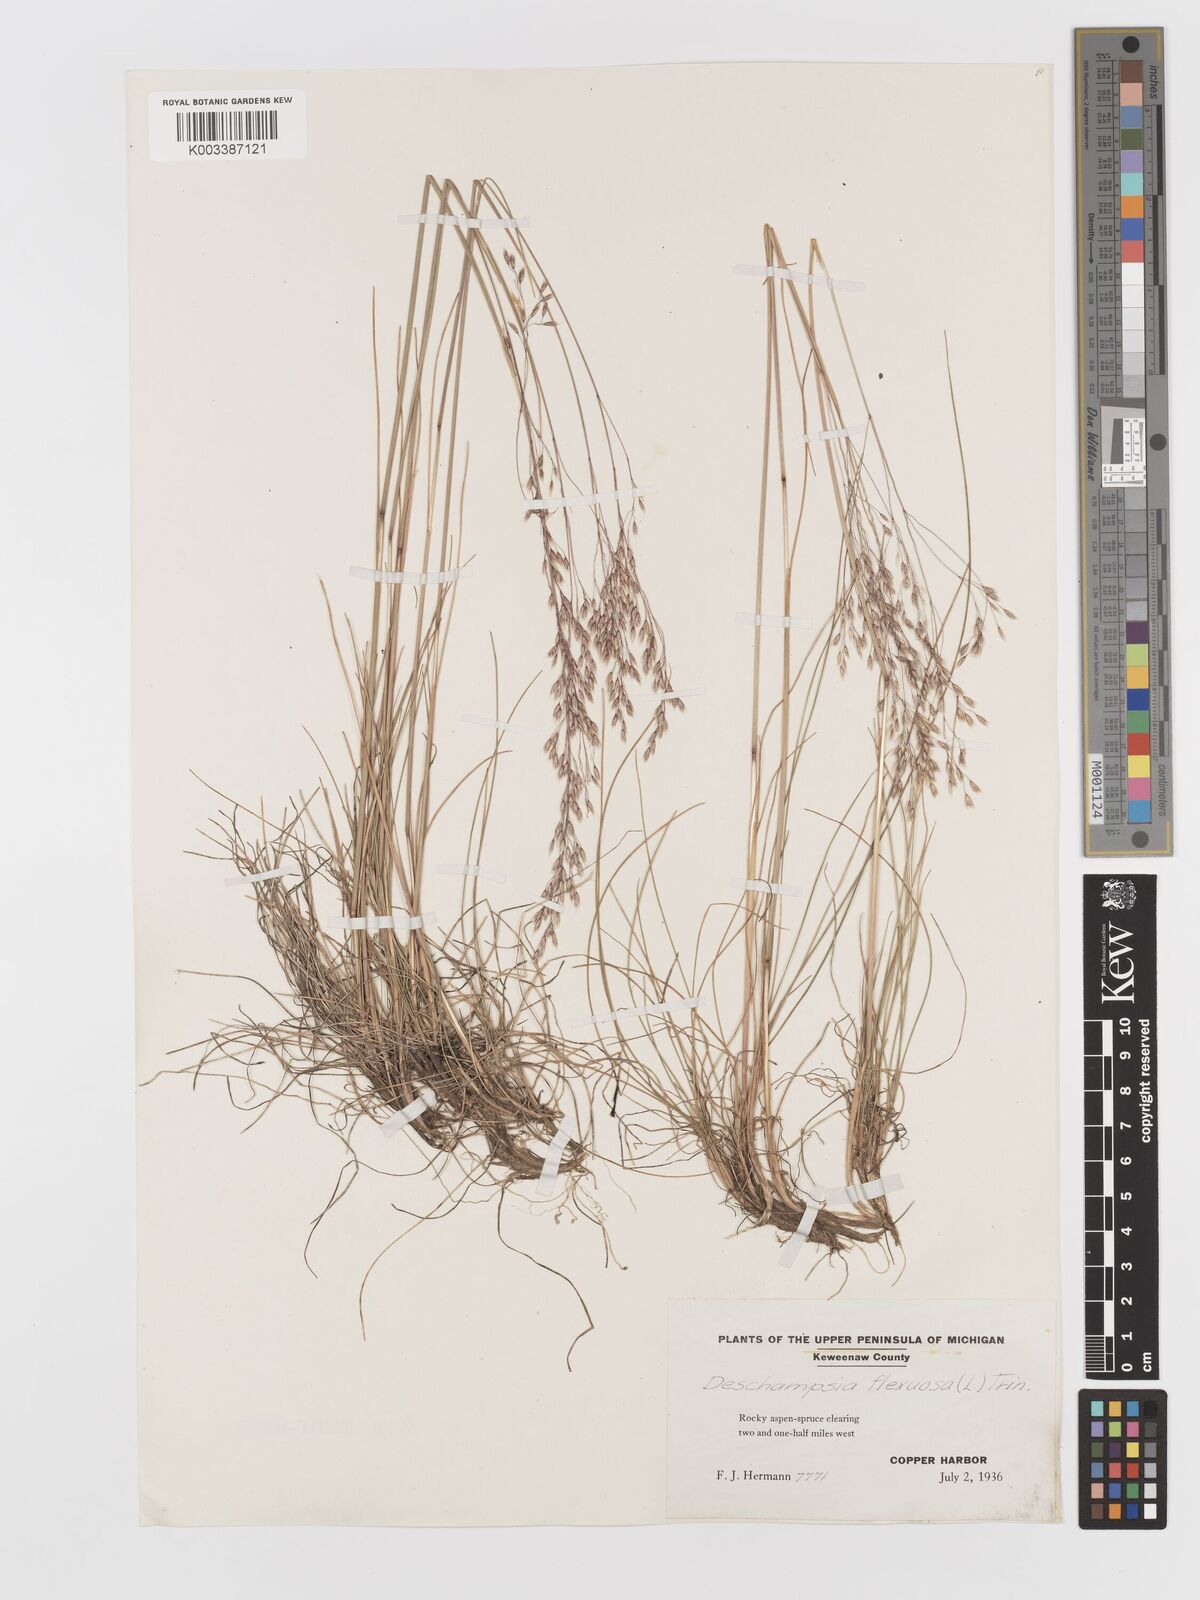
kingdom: Plantae
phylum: Tracheophyta
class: Liliopsida
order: Poales
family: Poaceae
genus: Avenella
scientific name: Avenella flexuosa
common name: Wavy hairgrass
